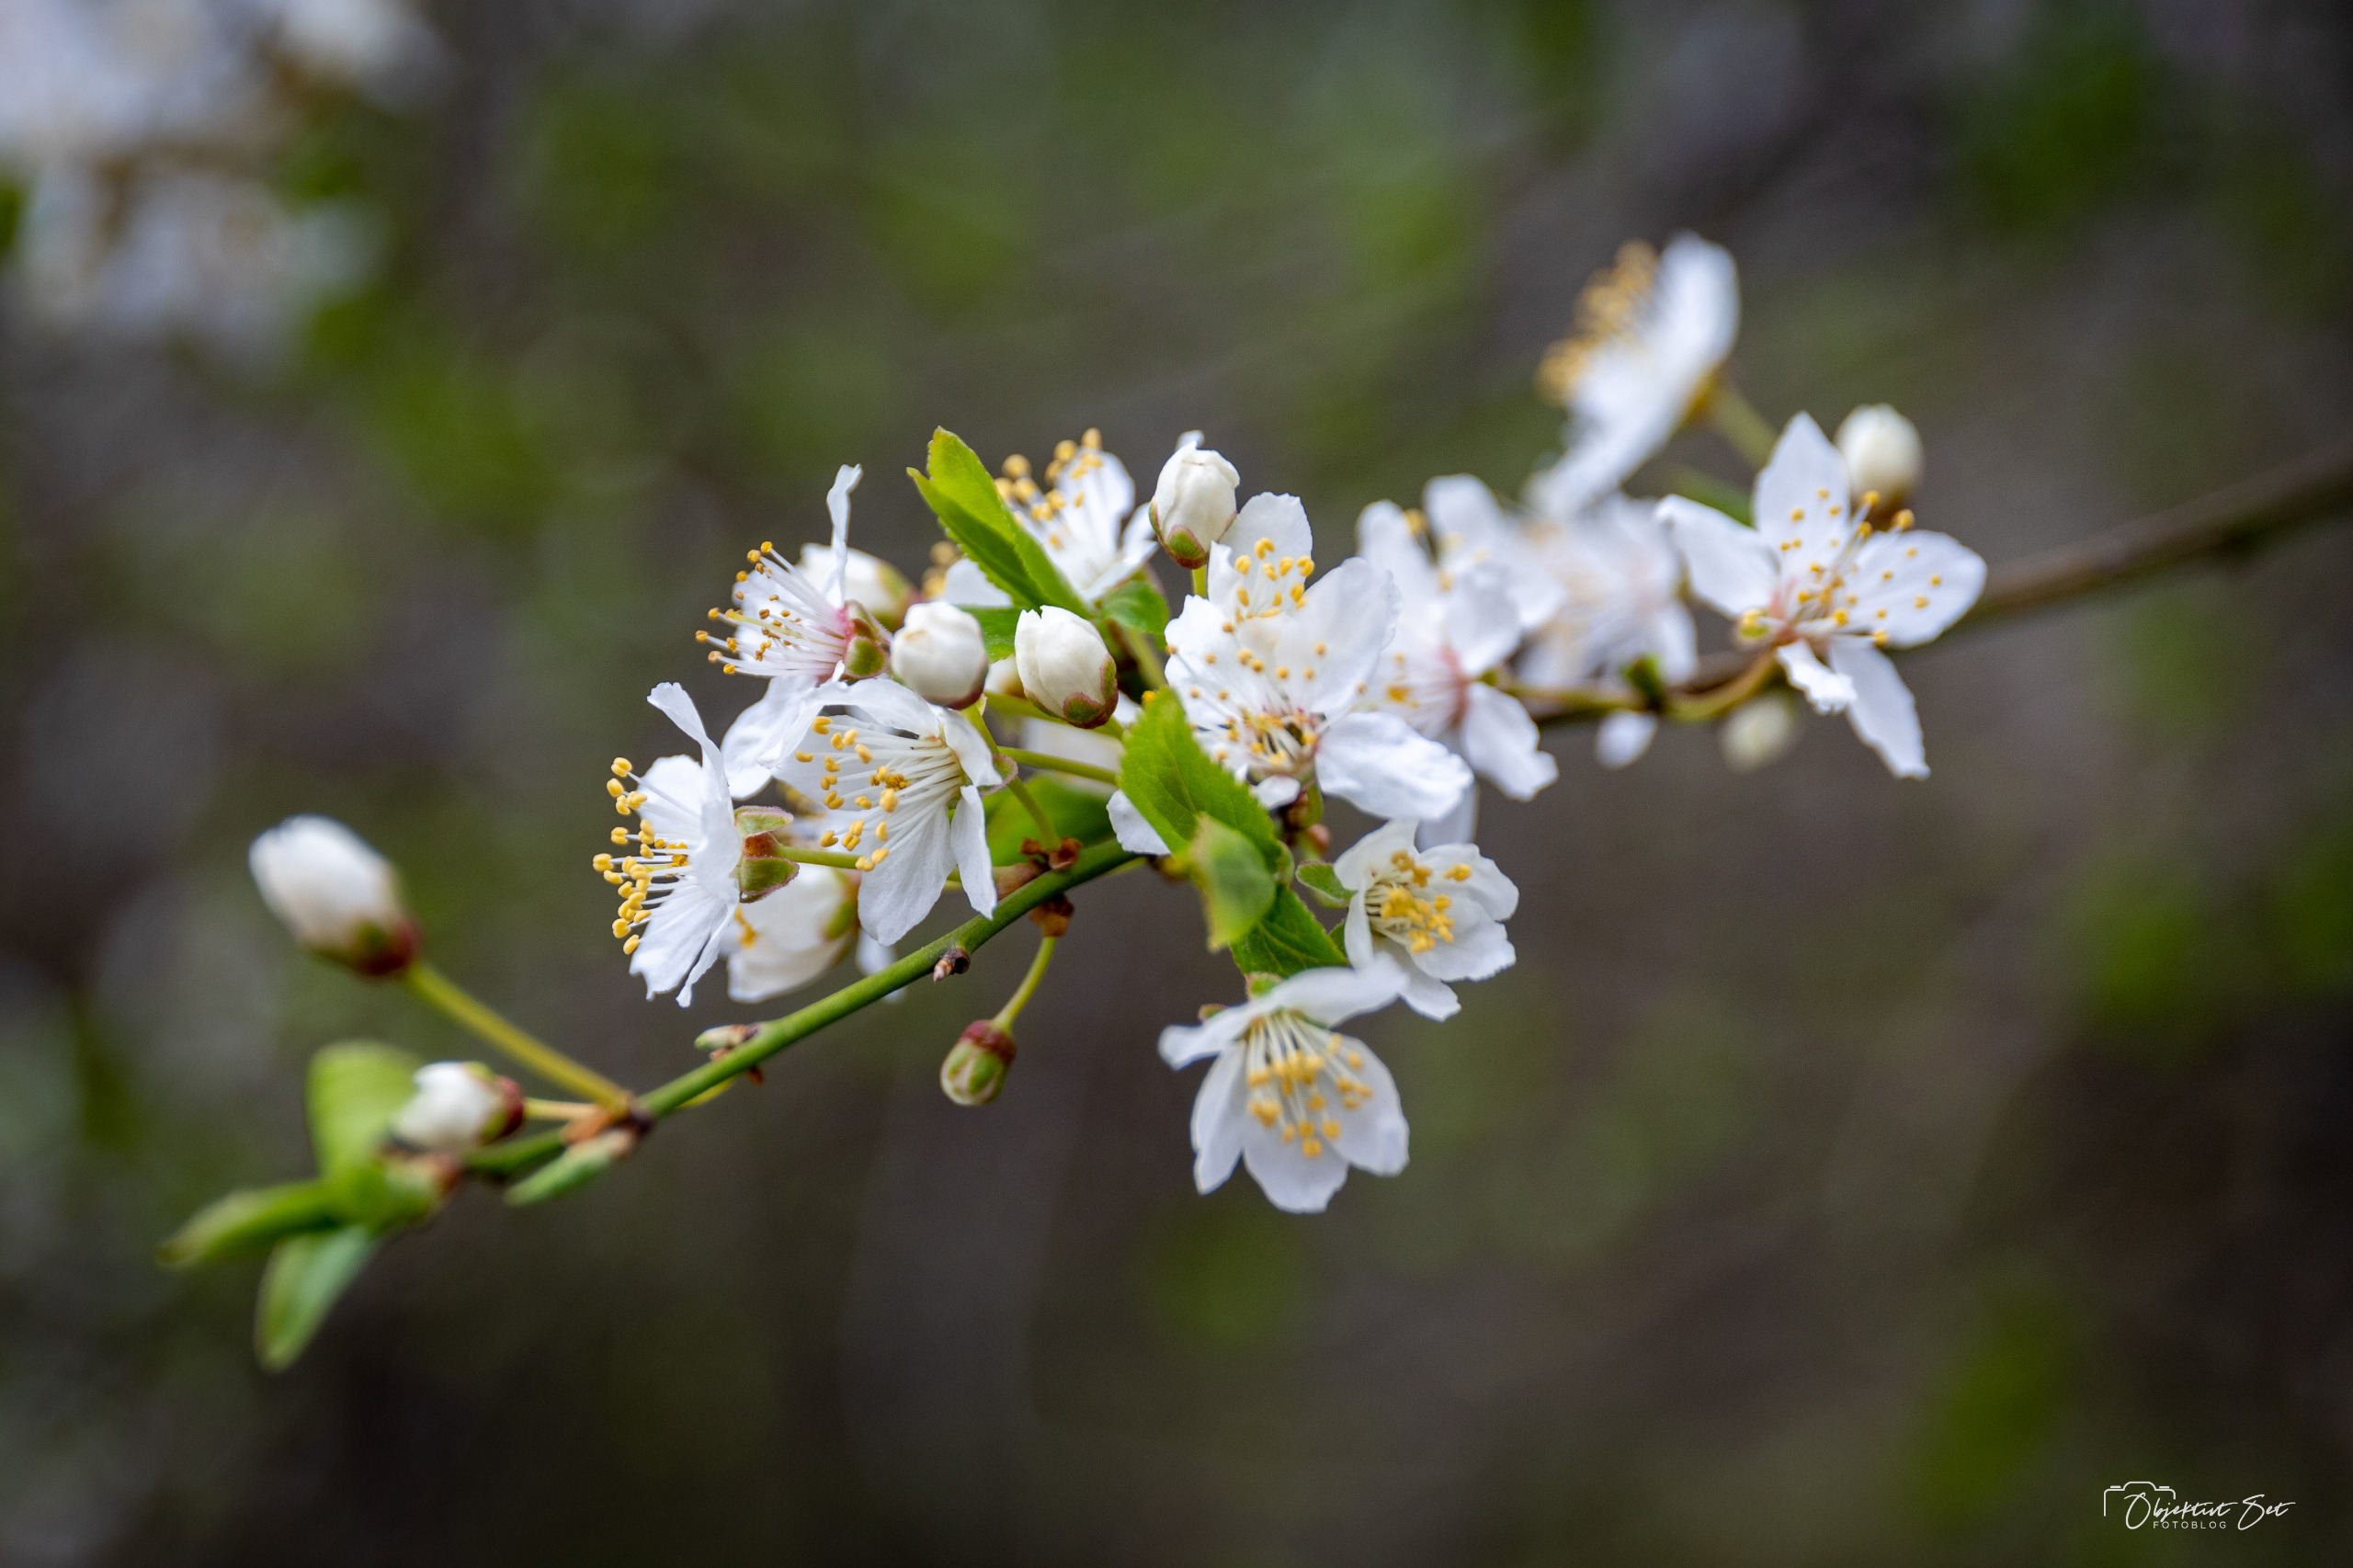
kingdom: Plantae
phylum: Tracheophyta
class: Magnoliopsida
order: Rosales
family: Rosaceae
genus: Prunus
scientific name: Prunus cerasifera
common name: Mirabel
